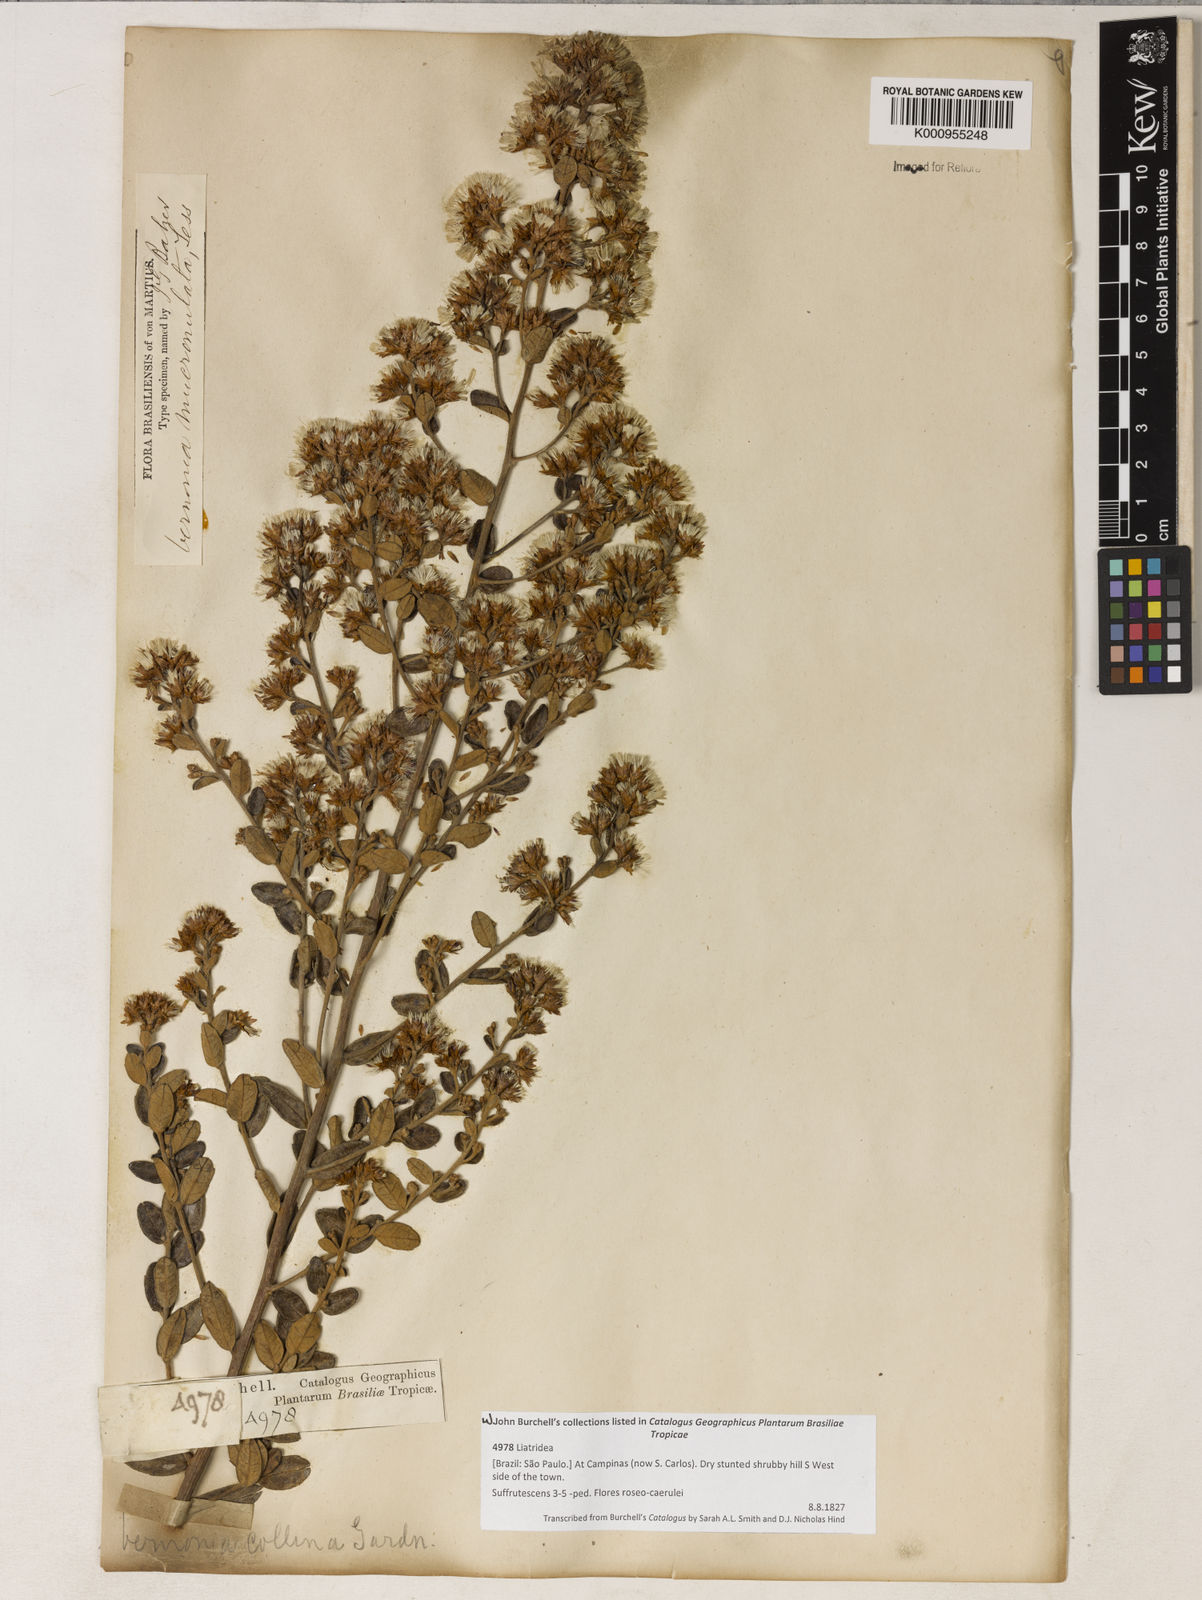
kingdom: Plantae
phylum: Tracheophyta
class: Magnoliopsida
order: Asterales
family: Asteraceae
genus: Vernonanthura
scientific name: Vernonanthura mucronulata
